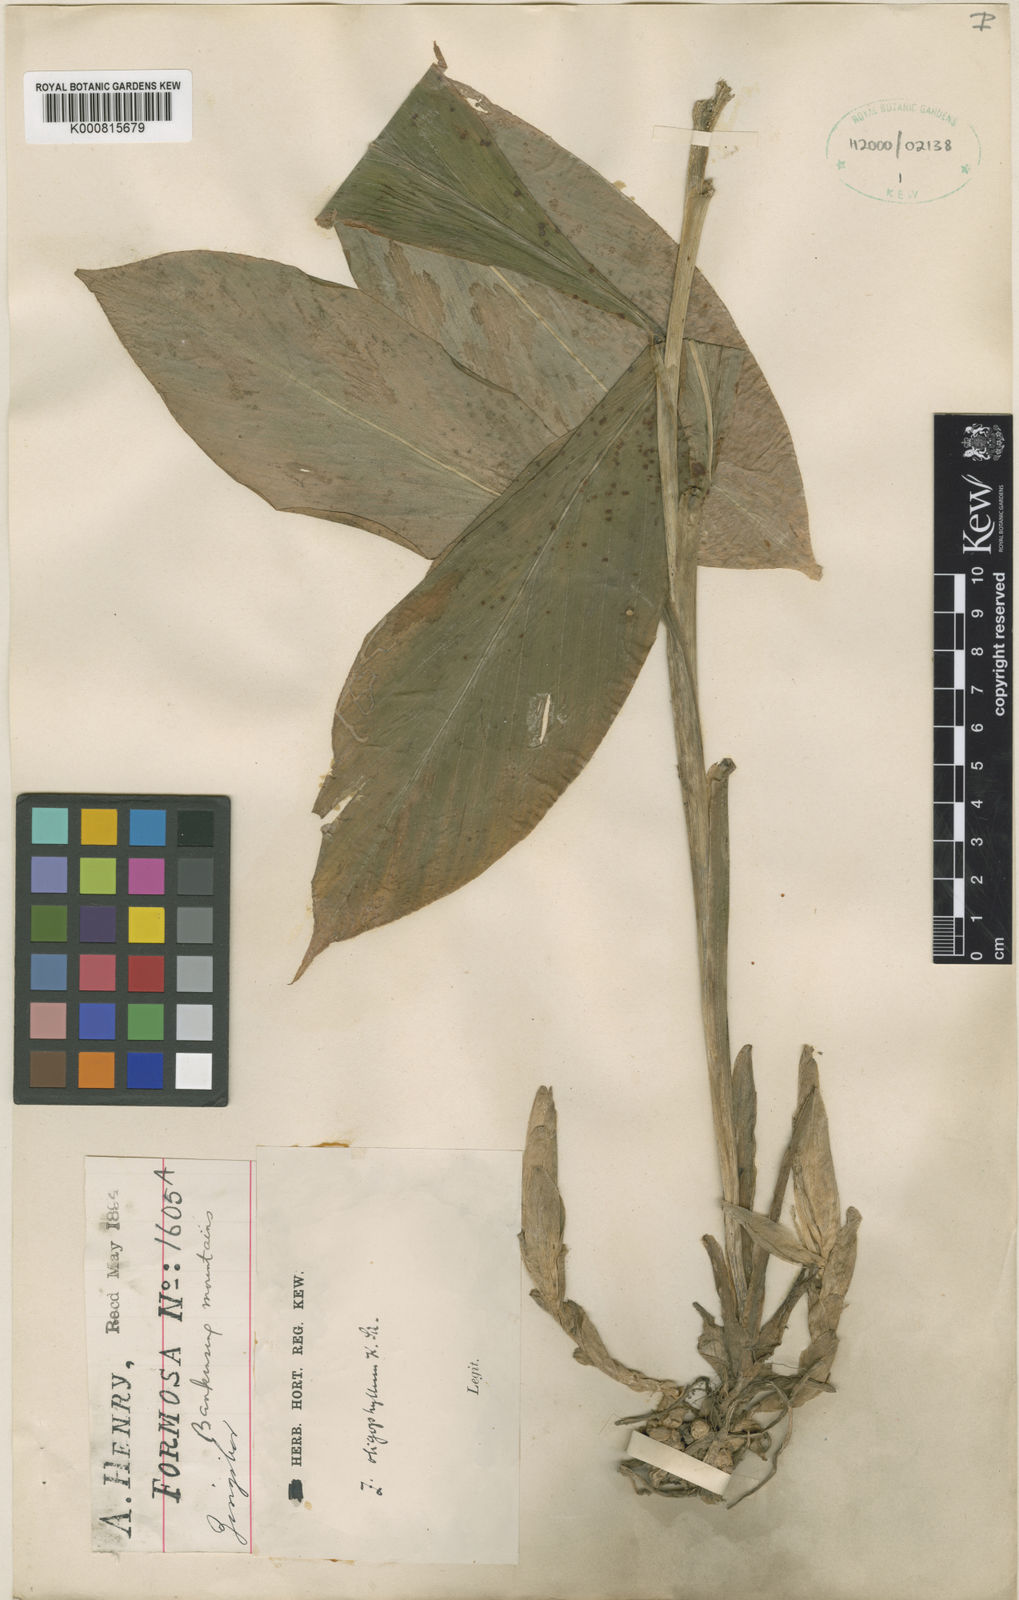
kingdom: Plantae
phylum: Tracheophyta
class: Liliopsida
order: Zingiberales
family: Zingiberaceae
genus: Zingiber
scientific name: Zingiber oligophyllum
